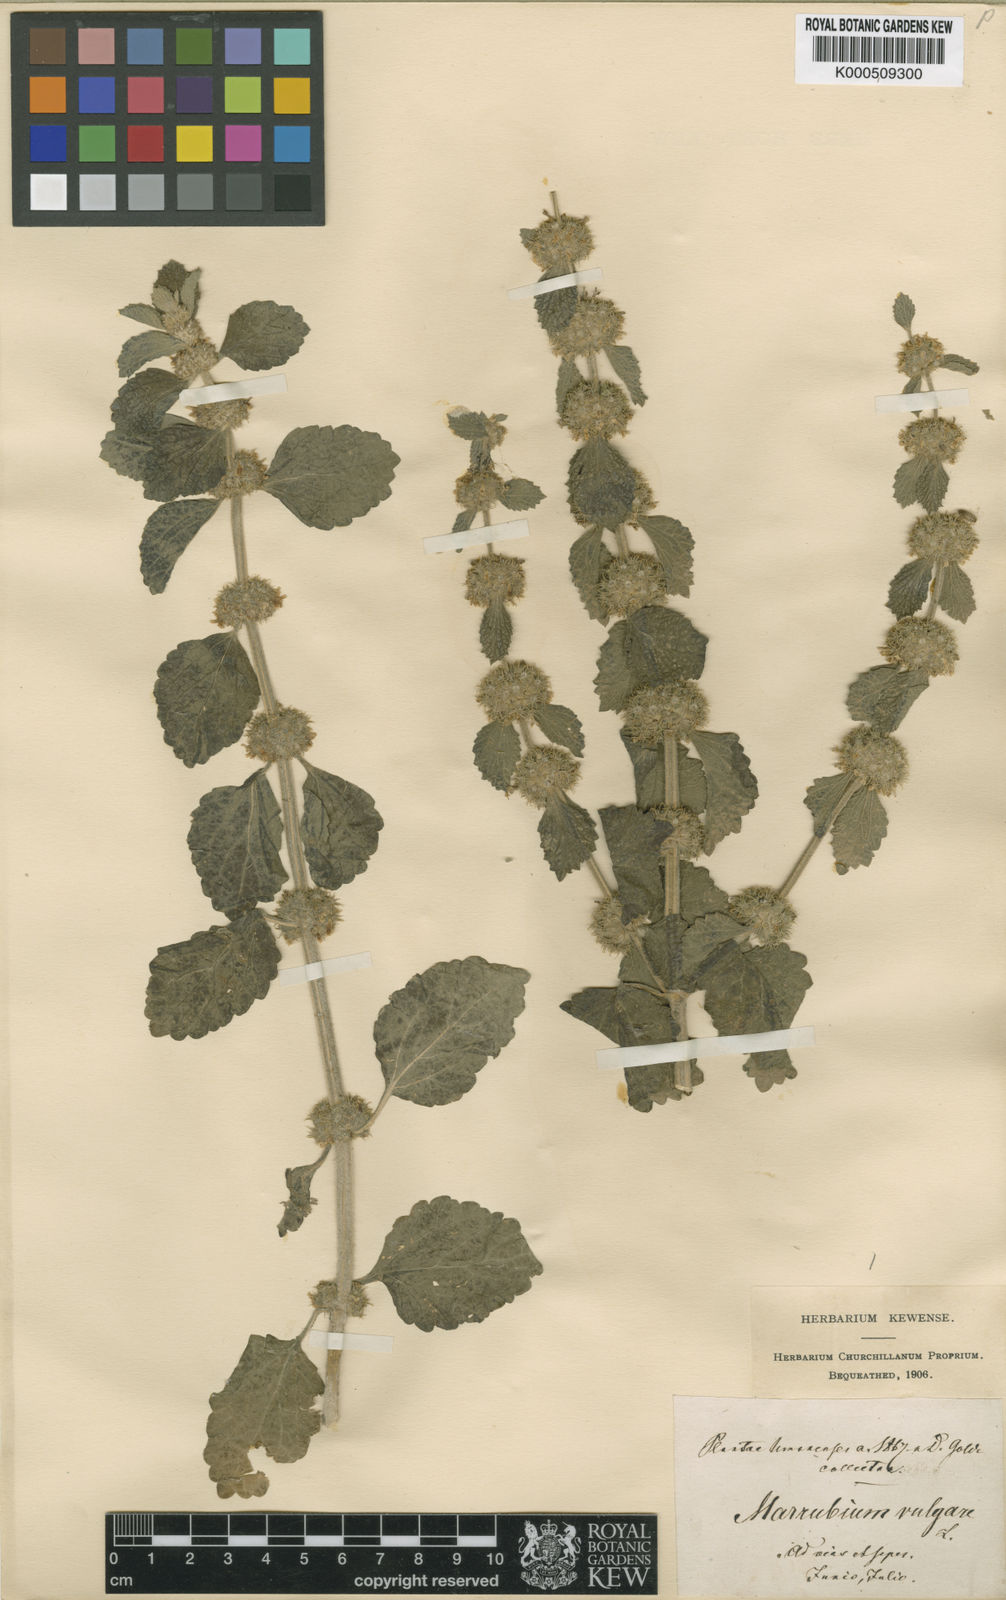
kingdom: Plantae
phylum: Tracheophyta
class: Magnoliopsida
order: Lamiales
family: Lamiaceae
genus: Marrubium
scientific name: Marrubium vulgare
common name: Horehound
